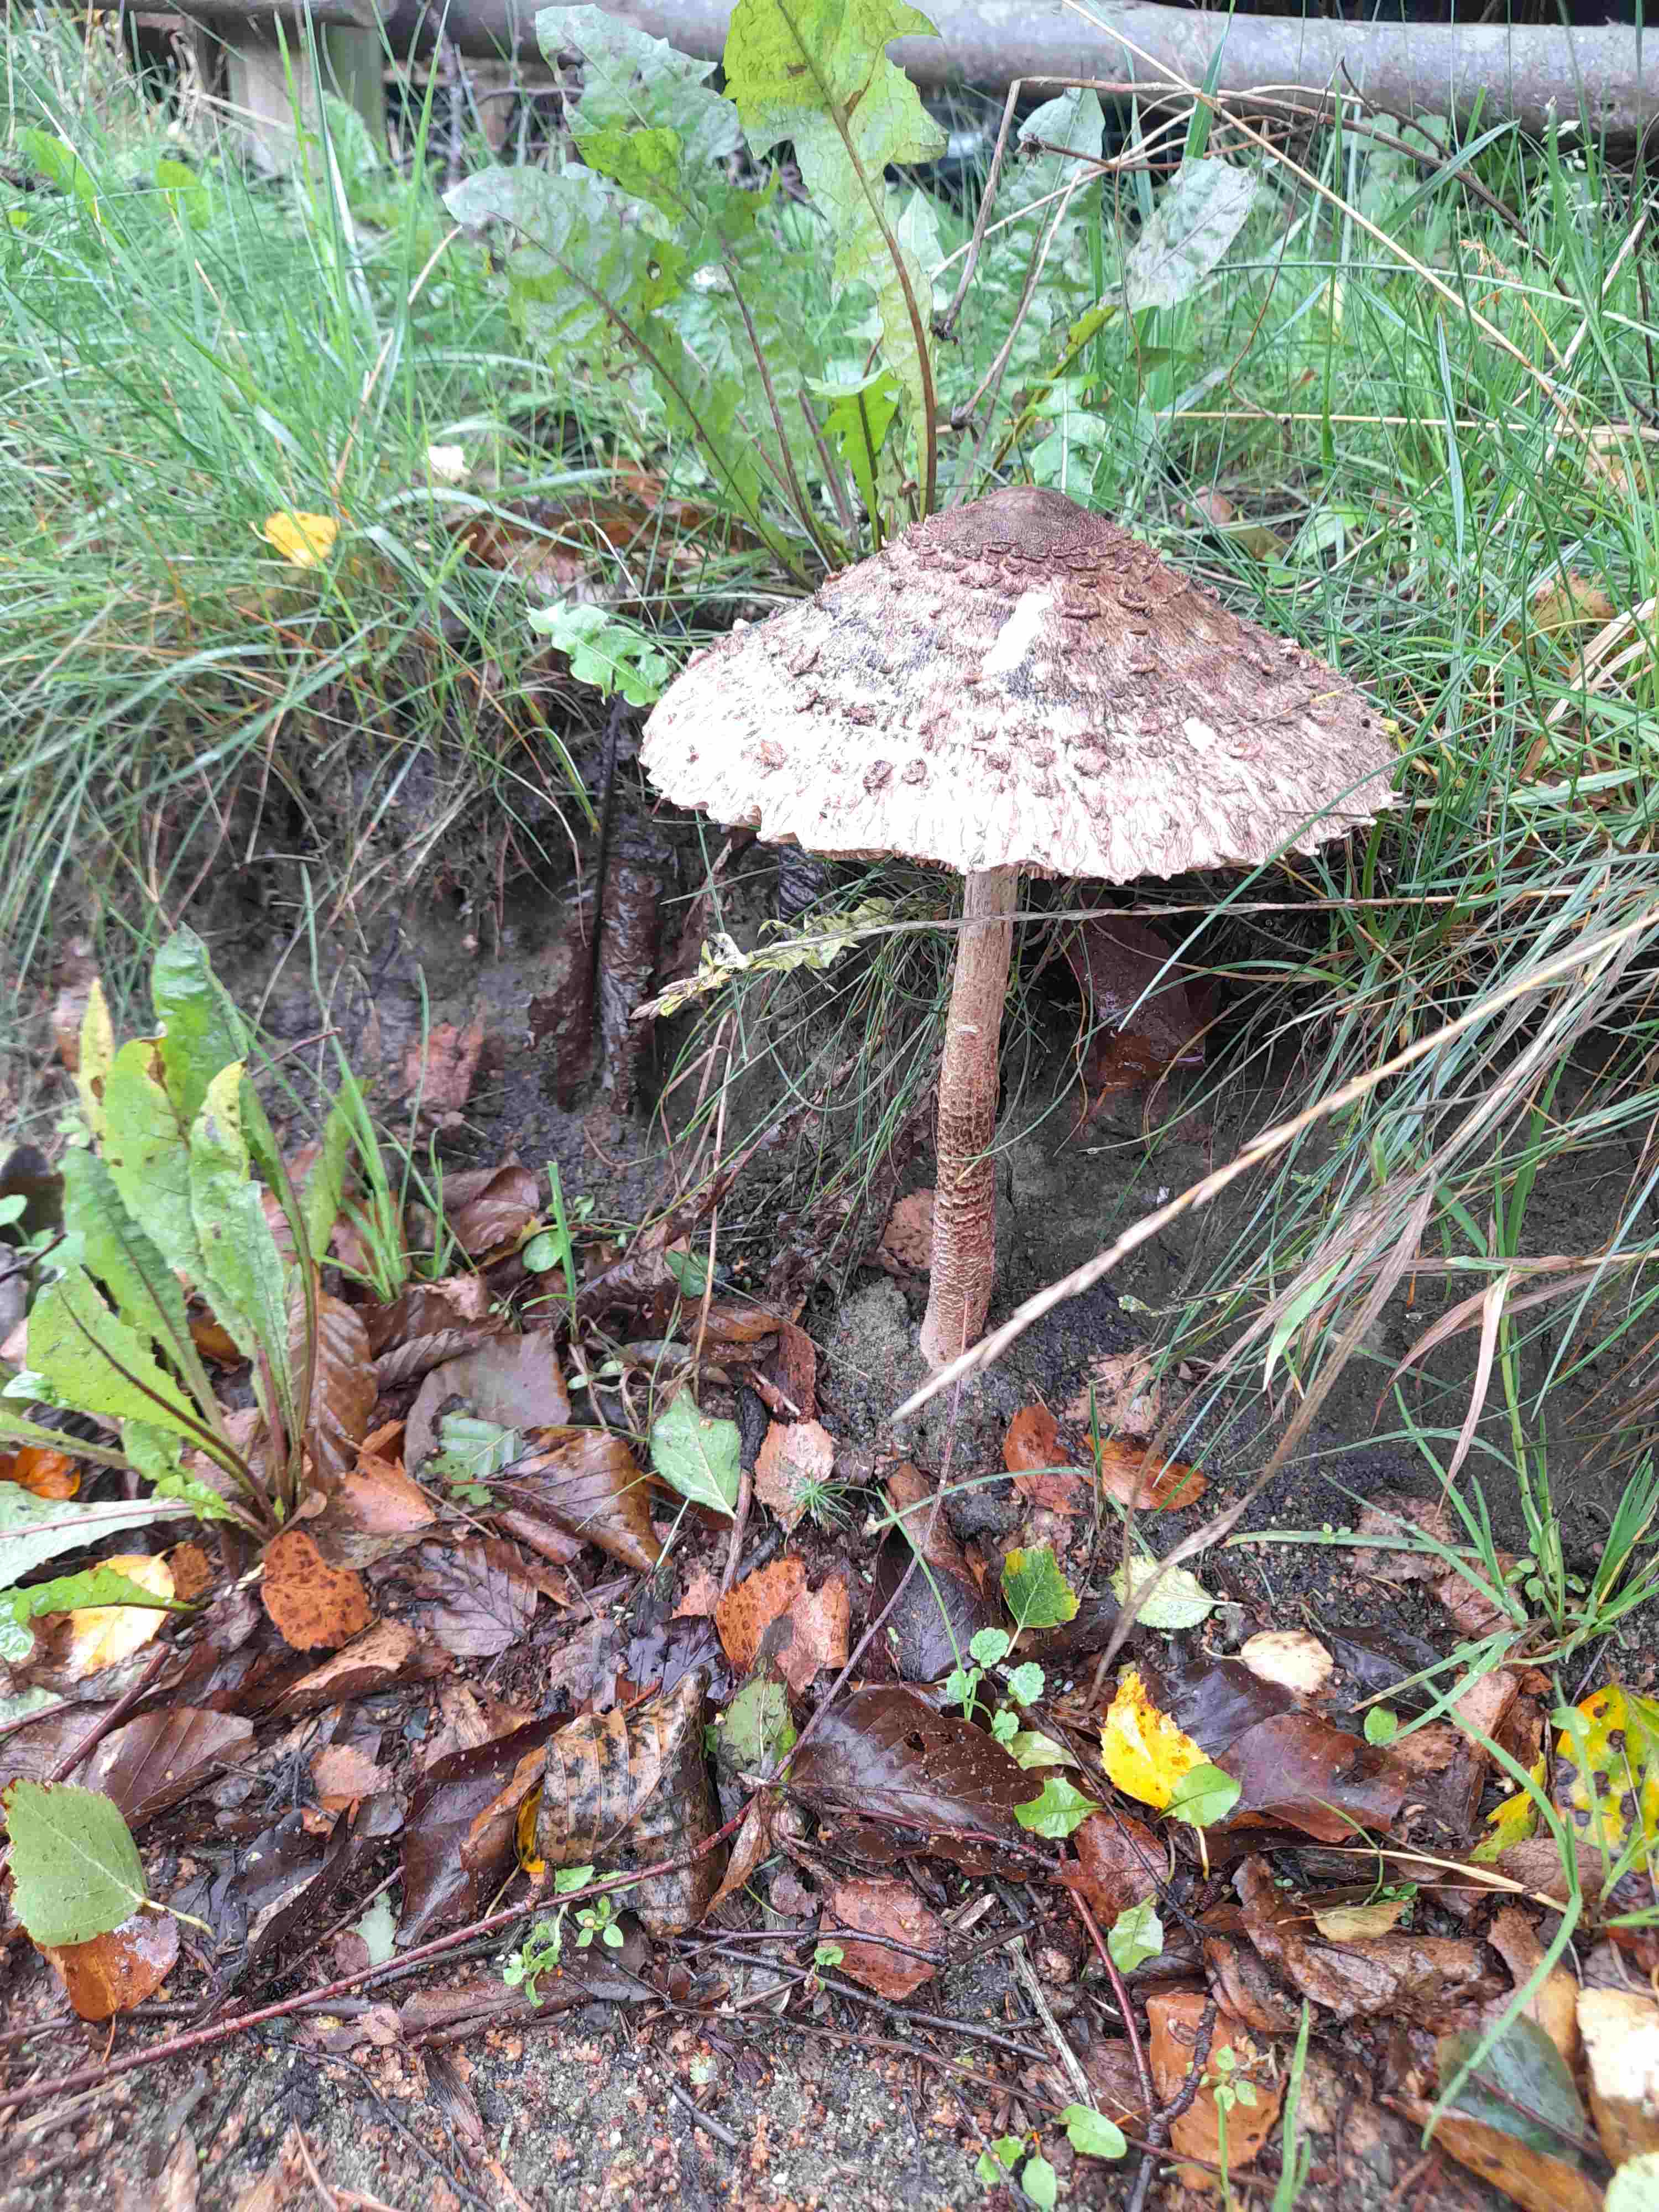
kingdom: Fungi
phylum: Basidiomycota
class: Agaricomycetes
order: Agaricales
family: Agaricaceae
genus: Macrolepiota
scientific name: Macrolepiota procera
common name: stor kæmpeparasolhat
